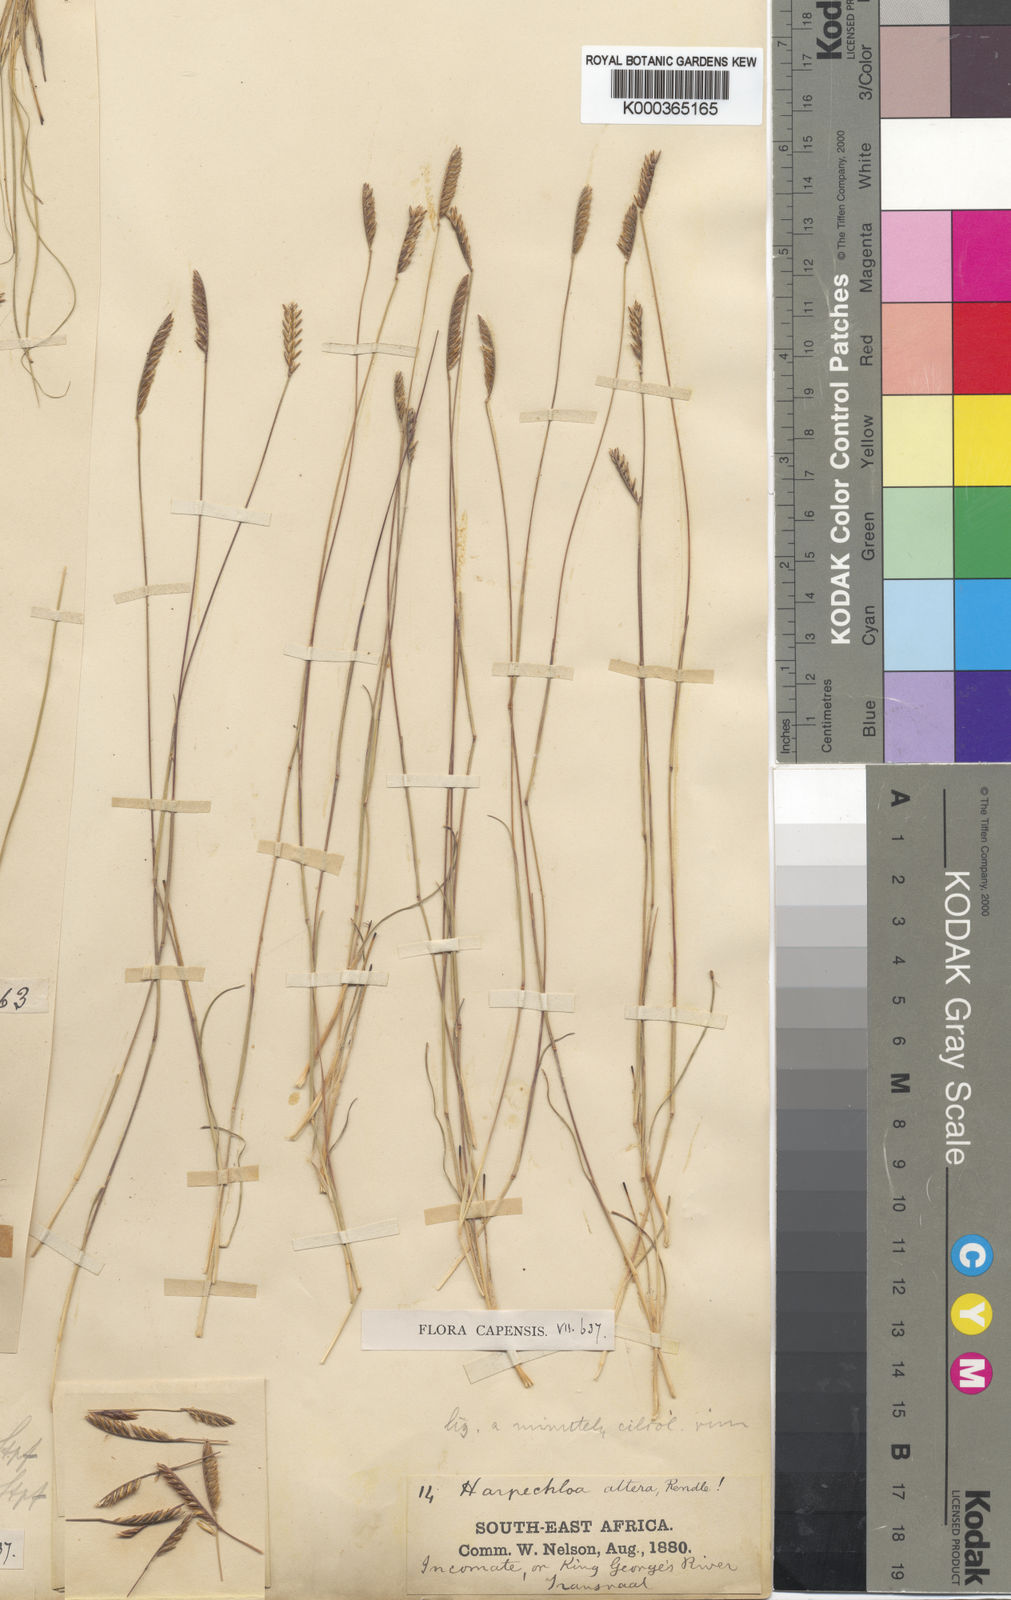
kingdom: Plantae
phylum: Tracheophyta
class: Liliopsida
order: Poales
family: Poaceae
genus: Microchloa
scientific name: Microchloa altera
